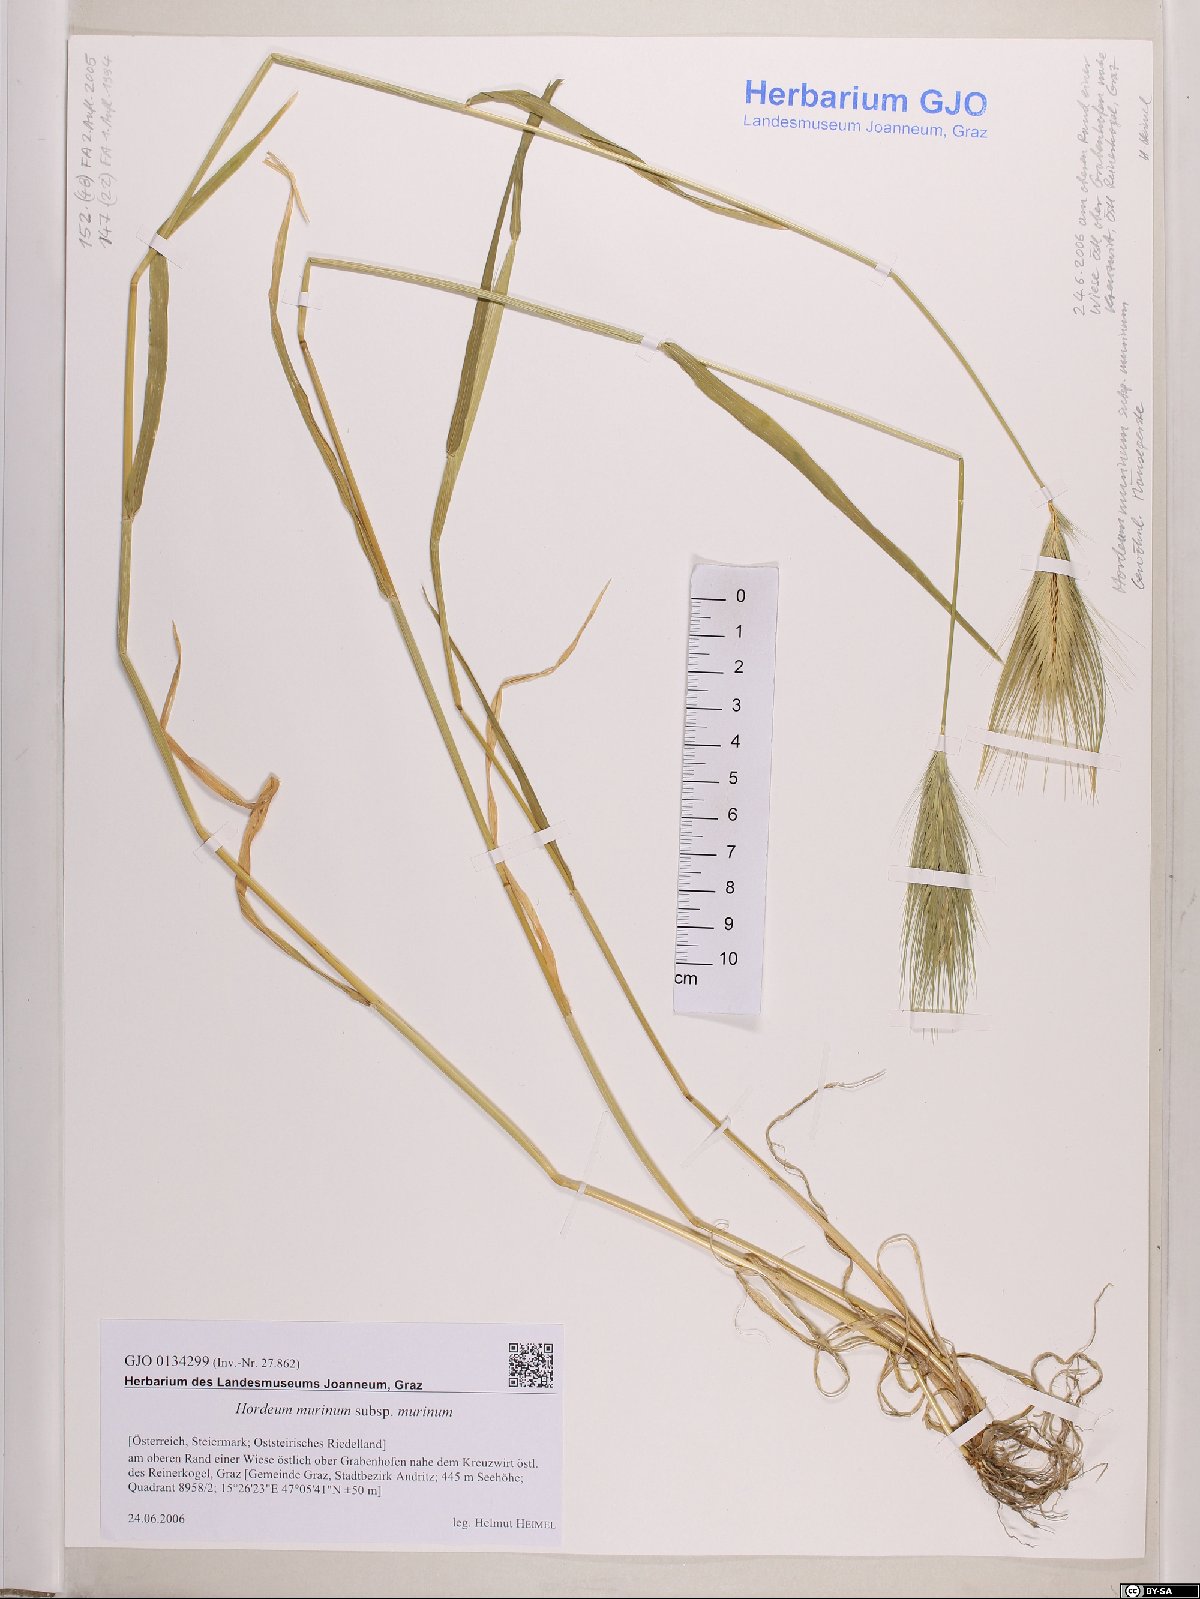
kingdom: Plantae
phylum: Tracheophyta
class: Liliopsida
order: Poales
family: Poaceae
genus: Hordeum
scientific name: Hordeum murinum
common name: Wall barley
